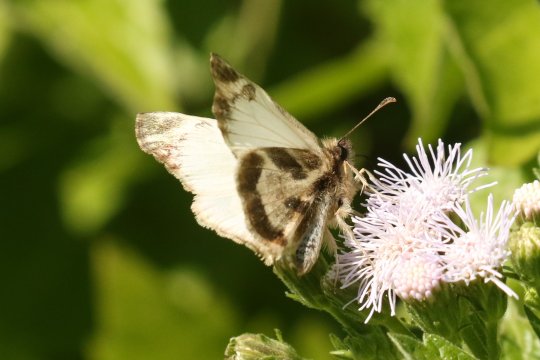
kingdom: Animalia
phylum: Arthropoda
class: Insecta
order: Lepidoptera
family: Hesperiidae
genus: Heliopetes
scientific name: Heliopetes macaira
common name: Turk's-cap White-Skipper
